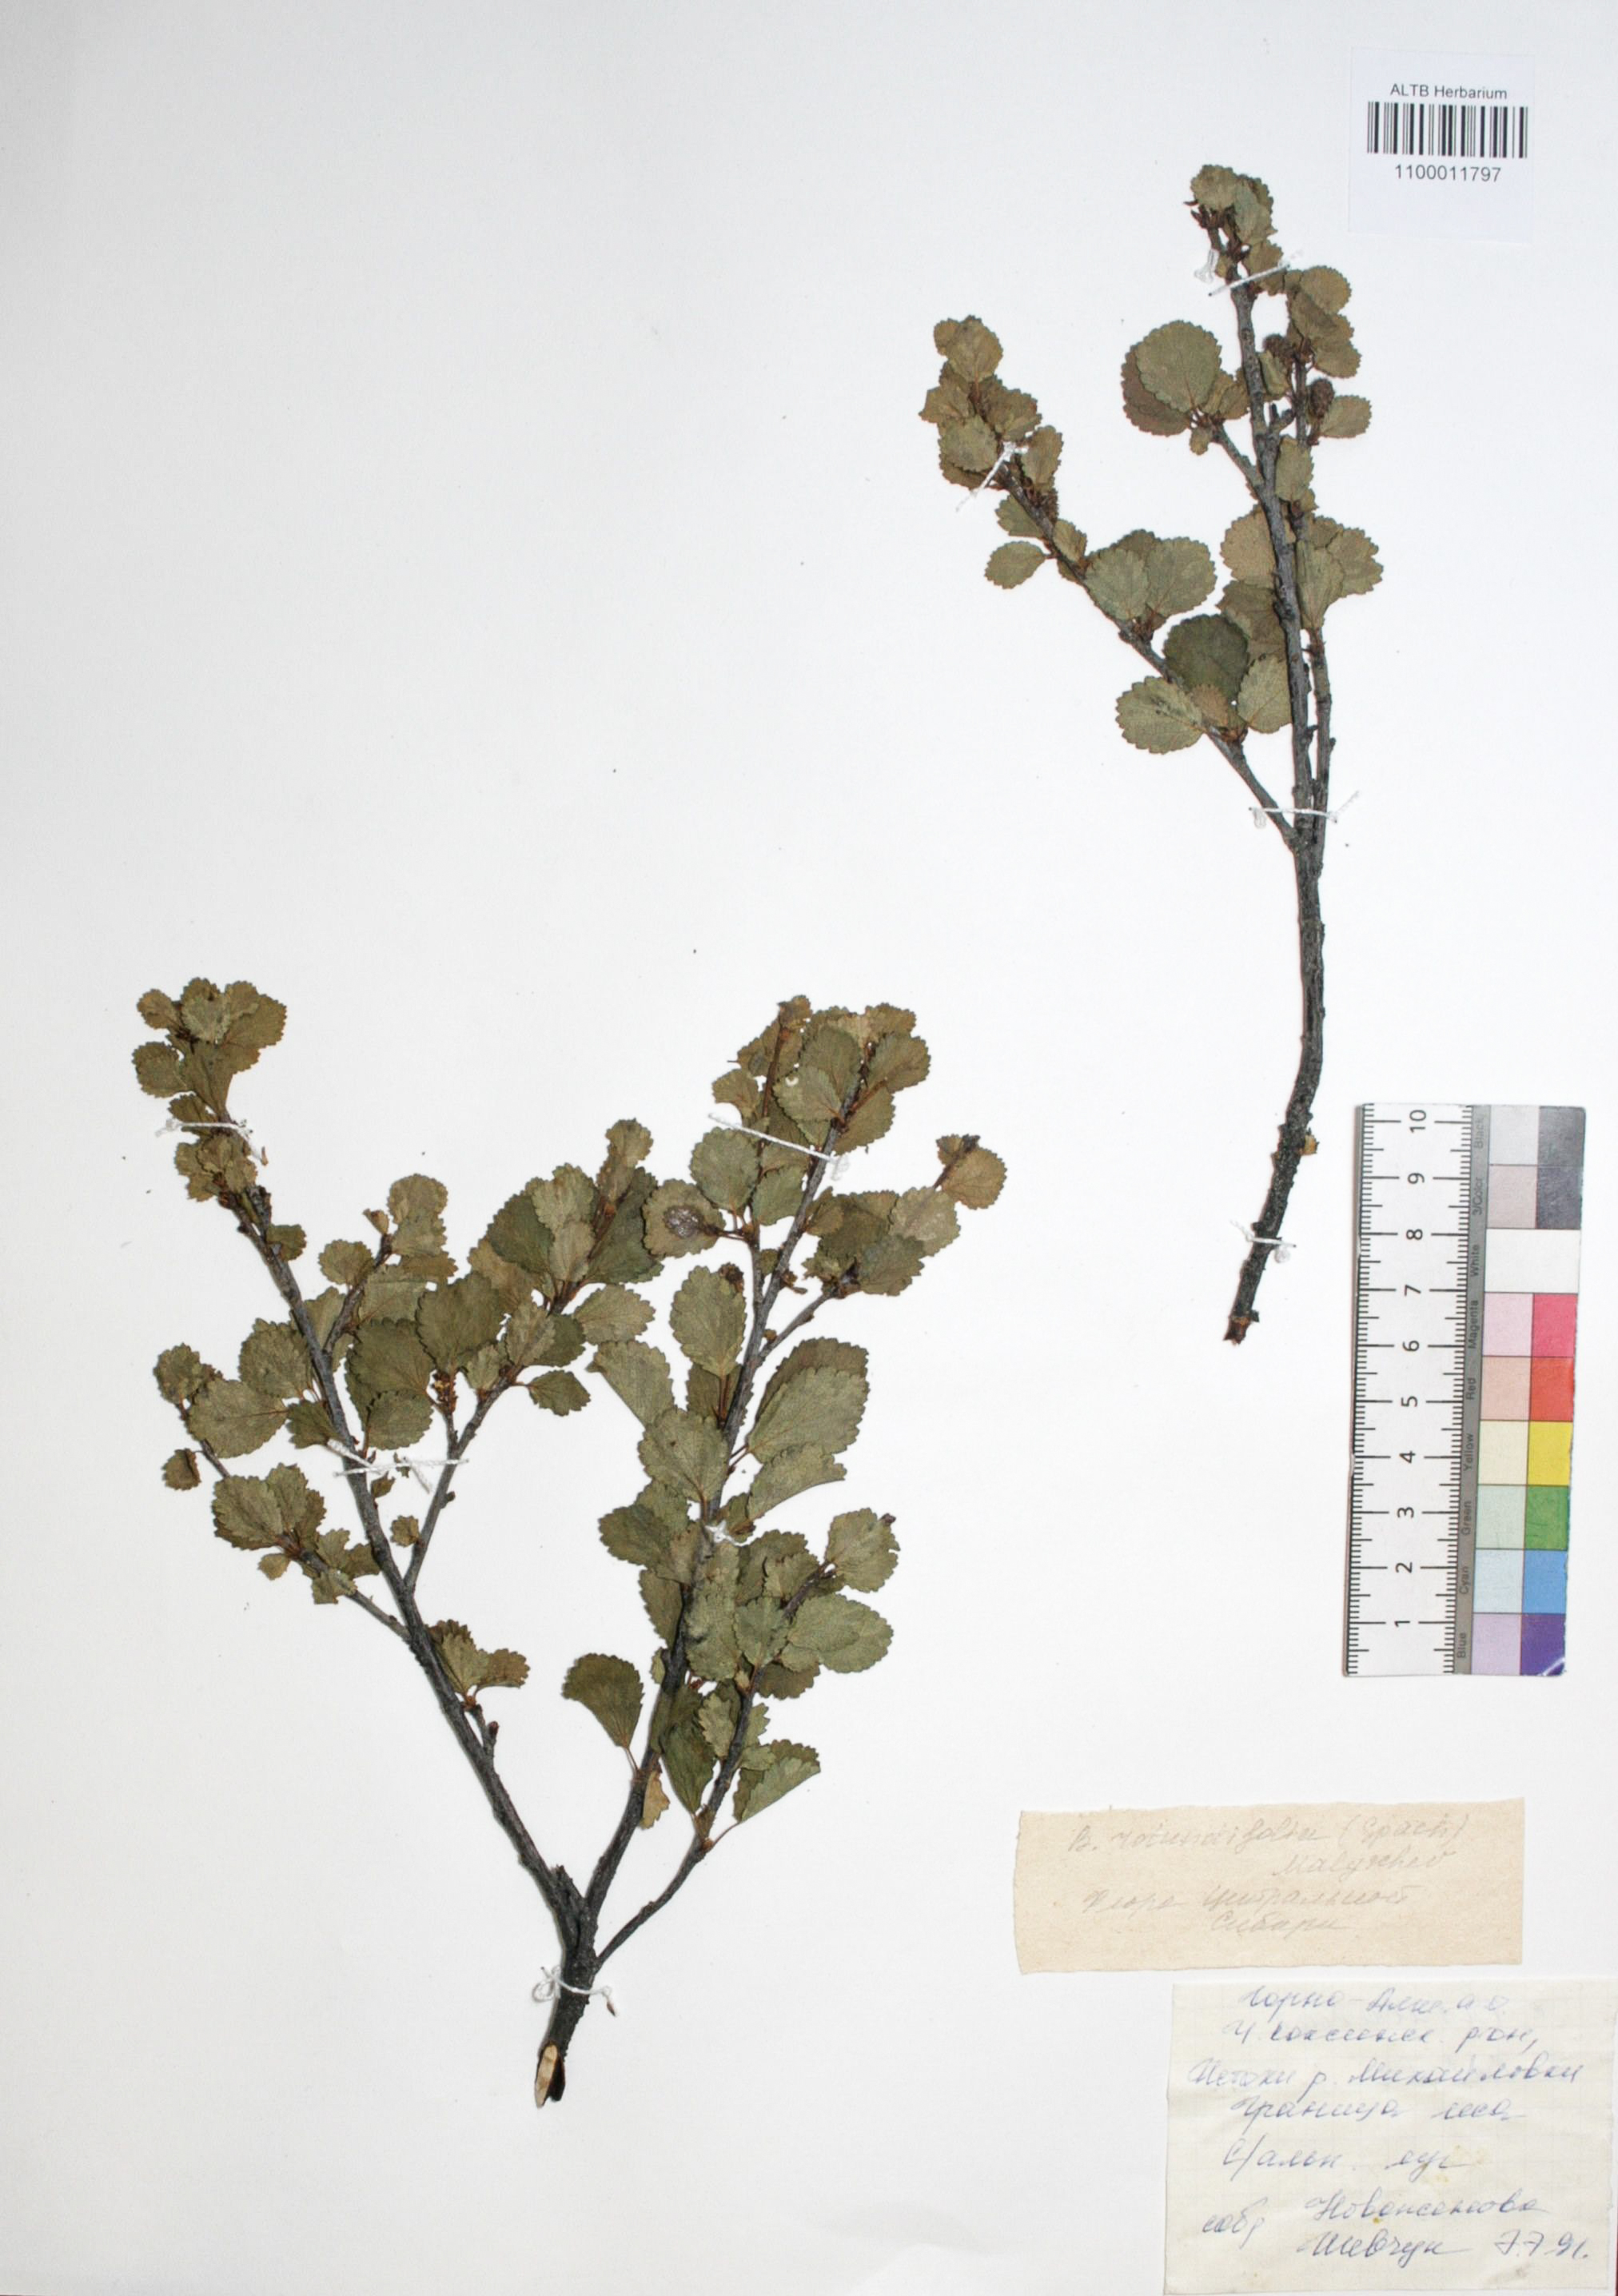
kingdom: Plantae
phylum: Tracheophyta
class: Magnoliopsida
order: Fagales
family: Betulaceae
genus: Betula
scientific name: Betula glandulosa
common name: Dwarf birch
